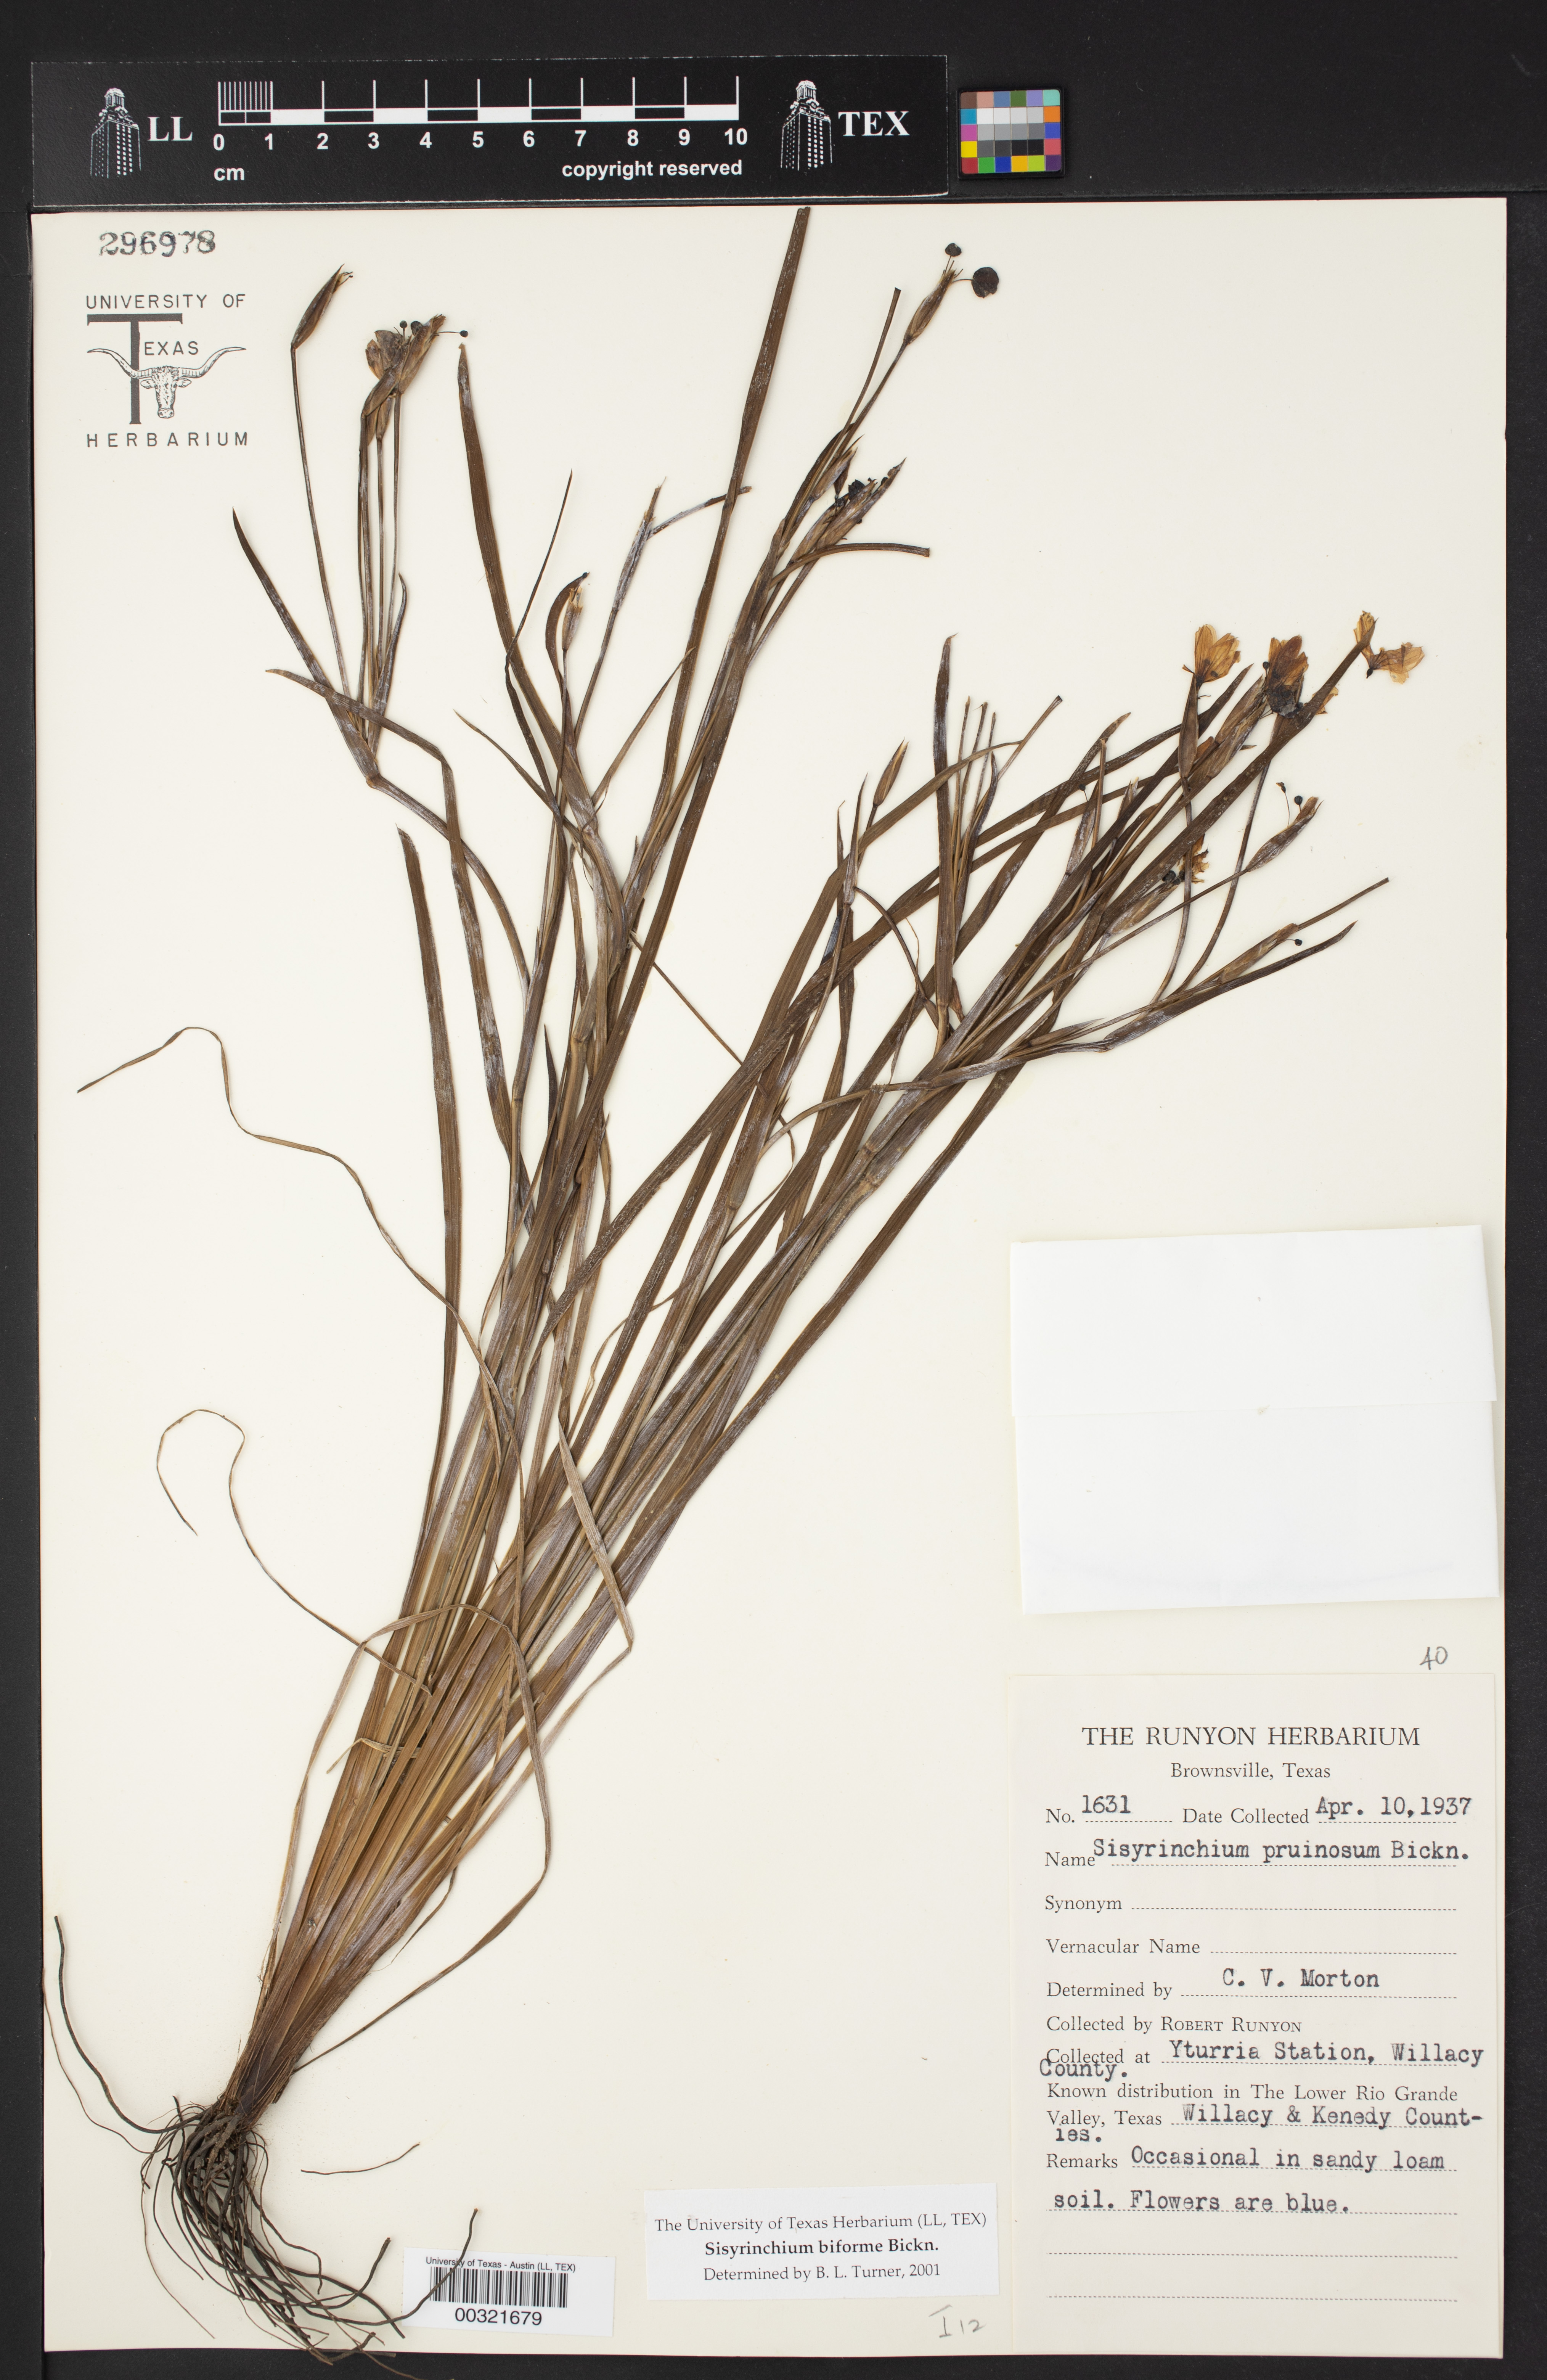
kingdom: Plantae
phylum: Tracheophyta
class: Liliopsida
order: Asparagales
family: Iridaceae
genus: Sisyrinchium
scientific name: Sisyrinchium biforme
